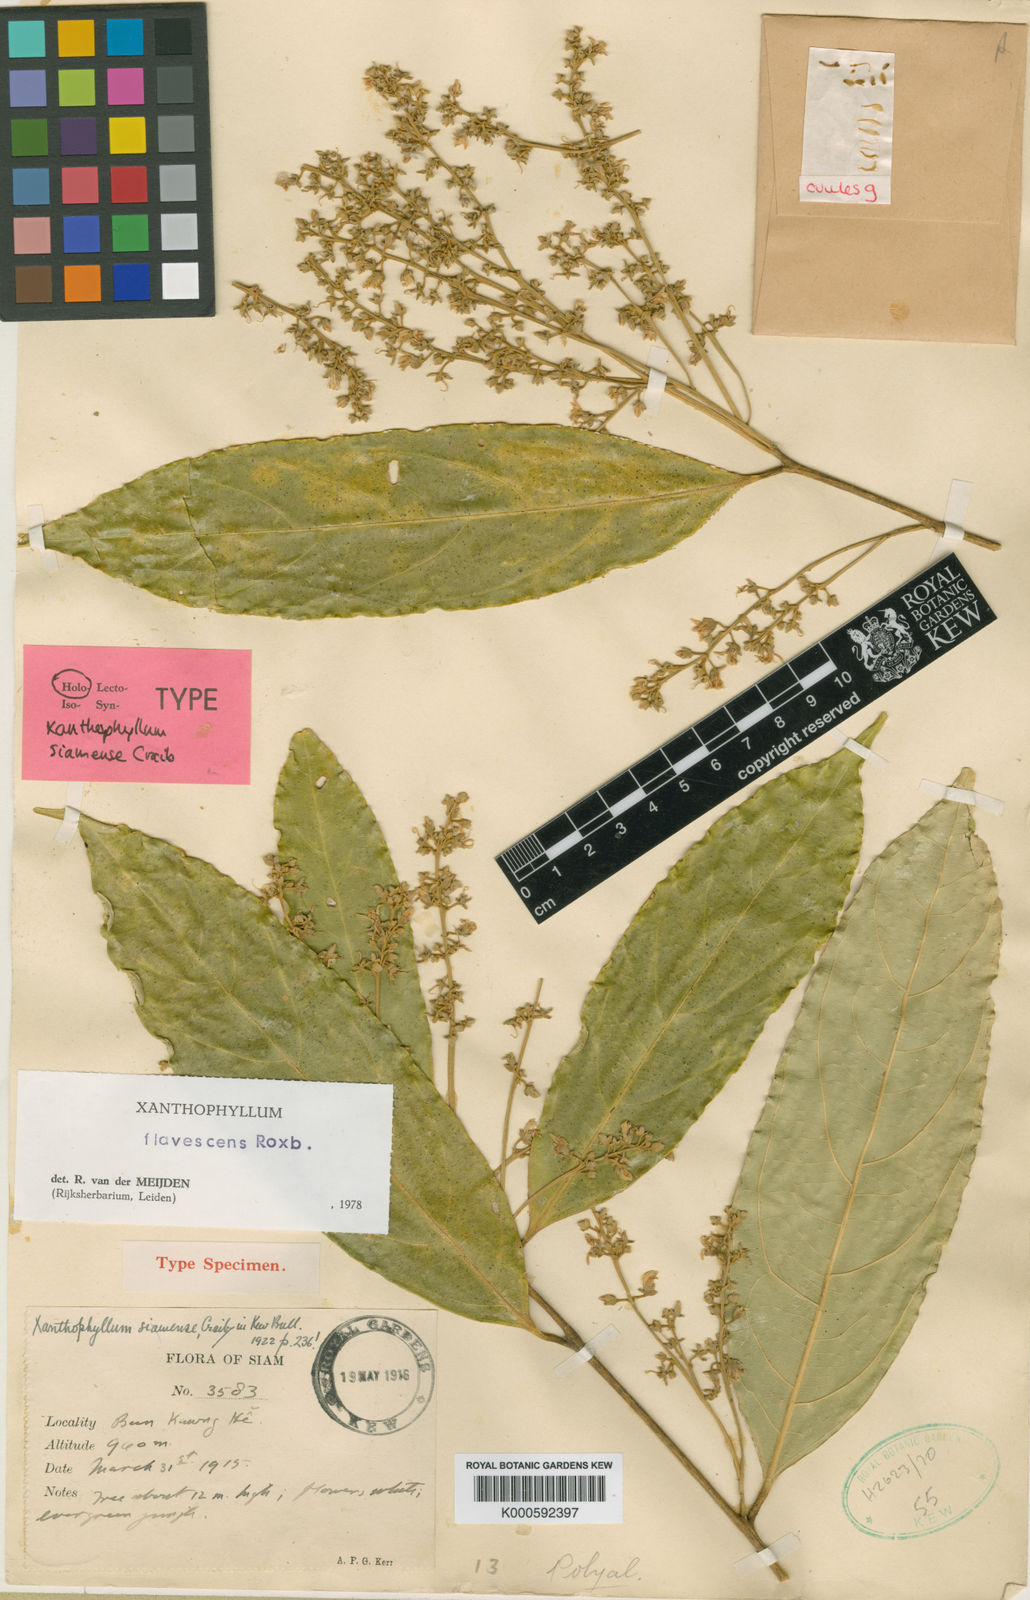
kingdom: Plantae
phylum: Tracheophyta
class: Magnoliopsida
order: Fabales
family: Polygalaceae
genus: Xanthophyllum
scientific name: Xanthophyllum flavescens
